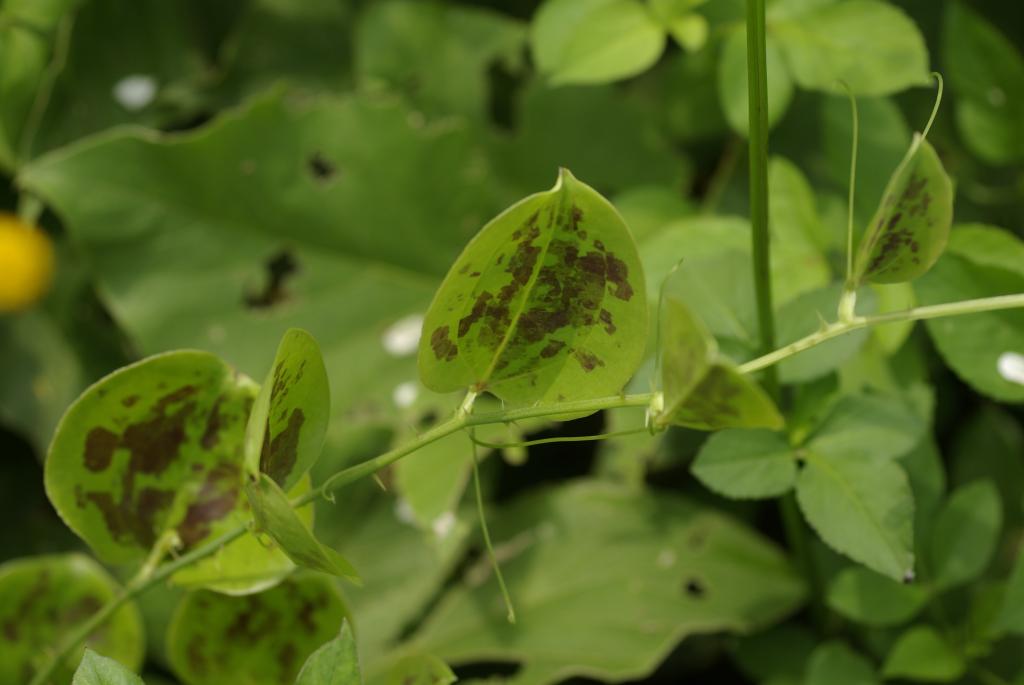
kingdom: Plantae
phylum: Tracheophyta
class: Liliopsida
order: Liliales
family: Smilacaceae
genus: Smilax
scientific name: Smilax china
